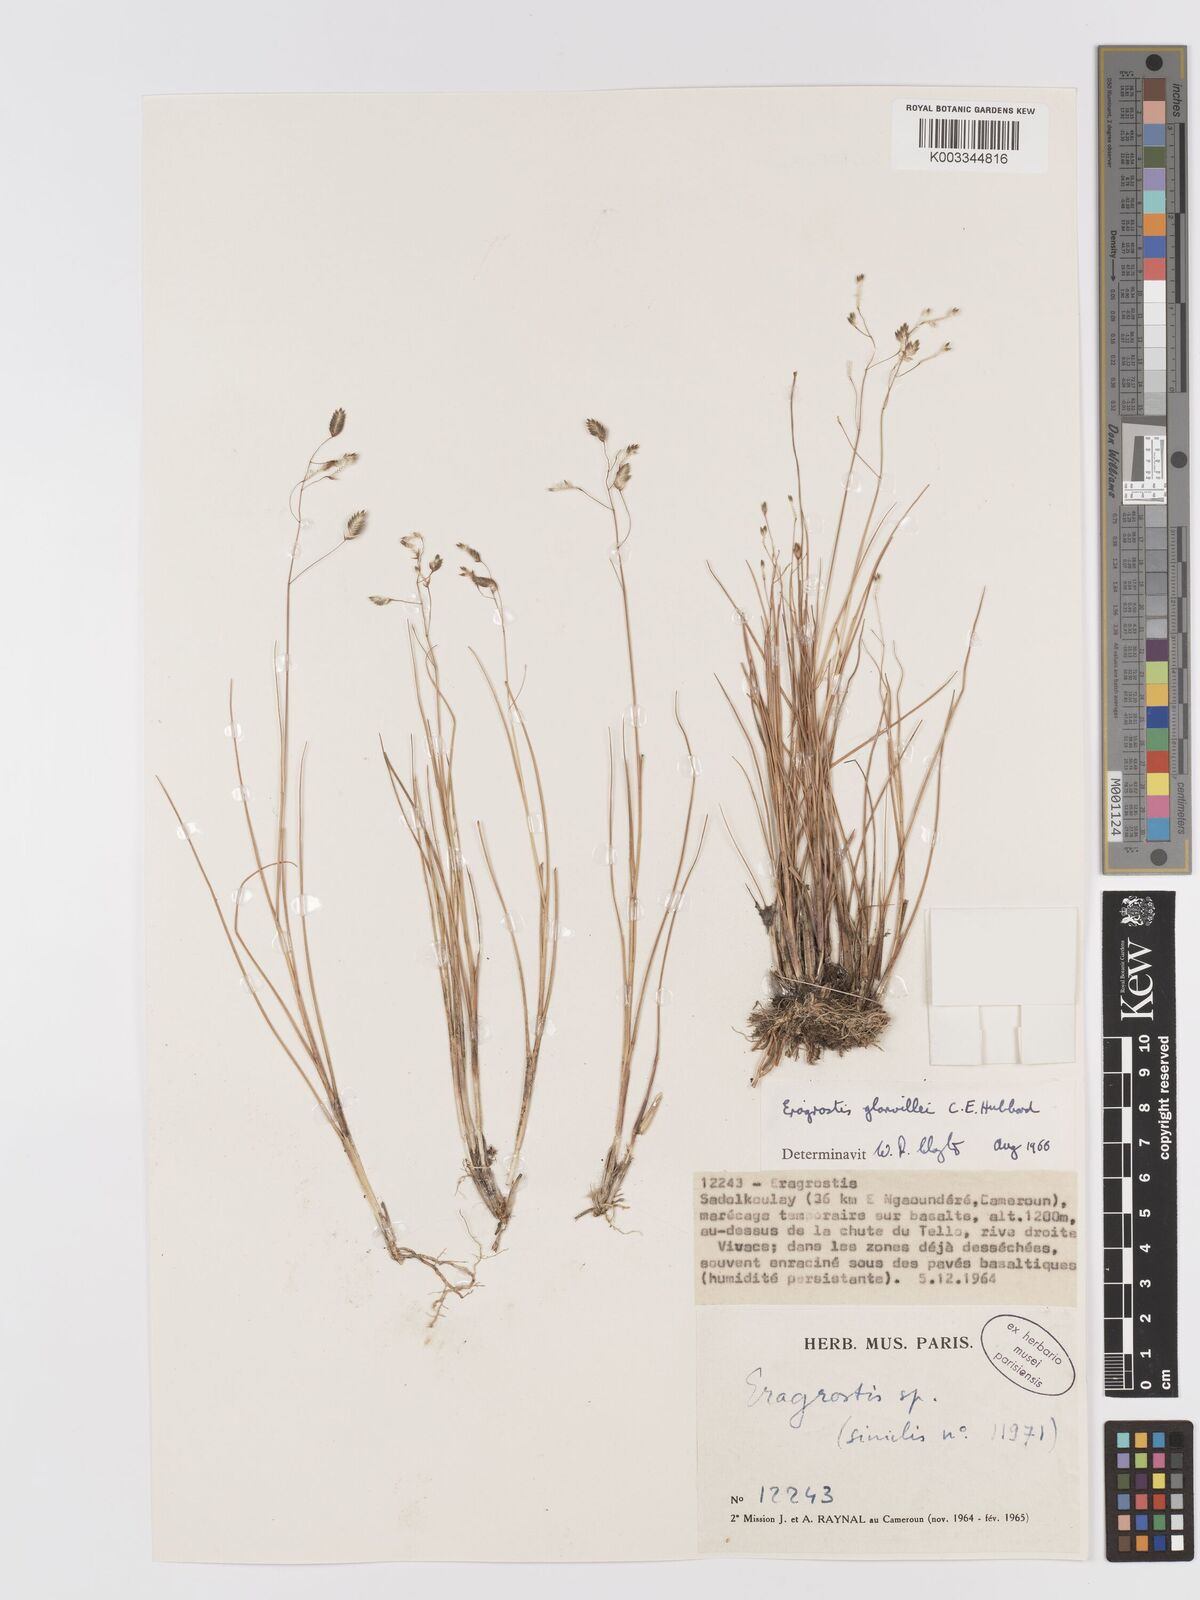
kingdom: Plantae
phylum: Tracheophyta
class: Liliopsida
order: Poales
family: Poaceae
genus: Eragrostis
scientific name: Eragrostis invalida
